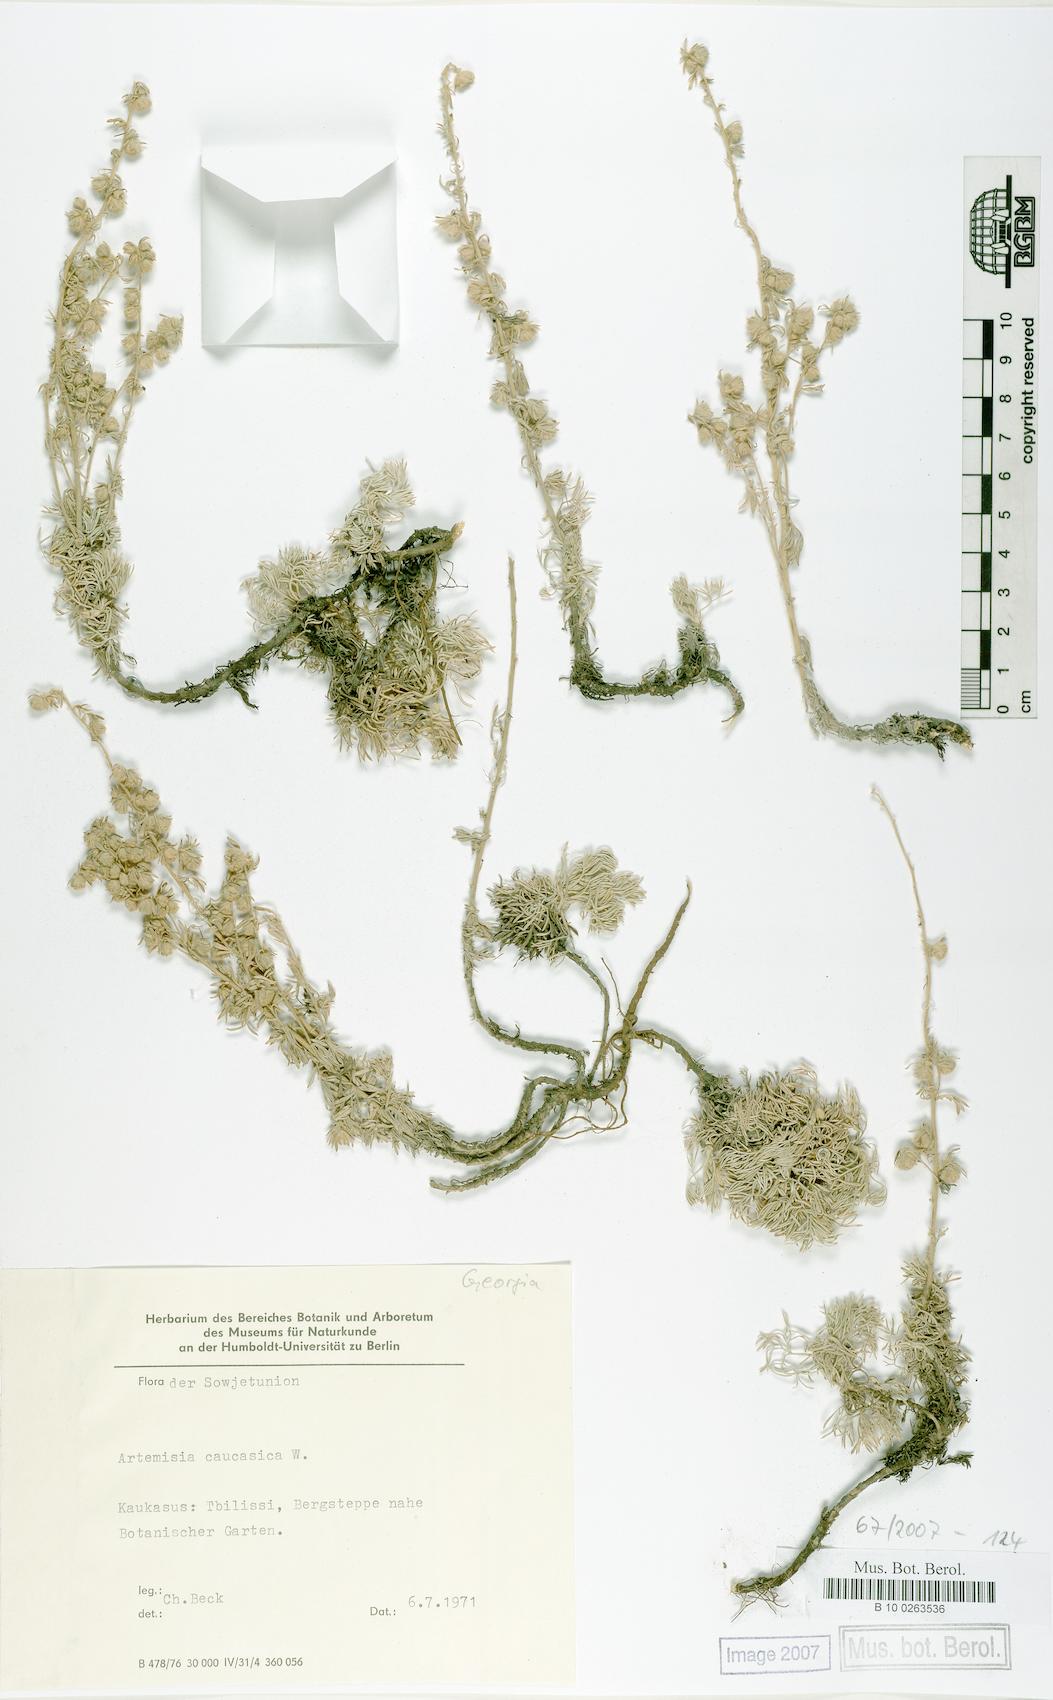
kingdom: Plantae
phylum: Tracheophyta
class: Magnoliopsida
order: Asterales
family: Asteraceae
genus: Artemisia
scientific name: Artemisia alpina
